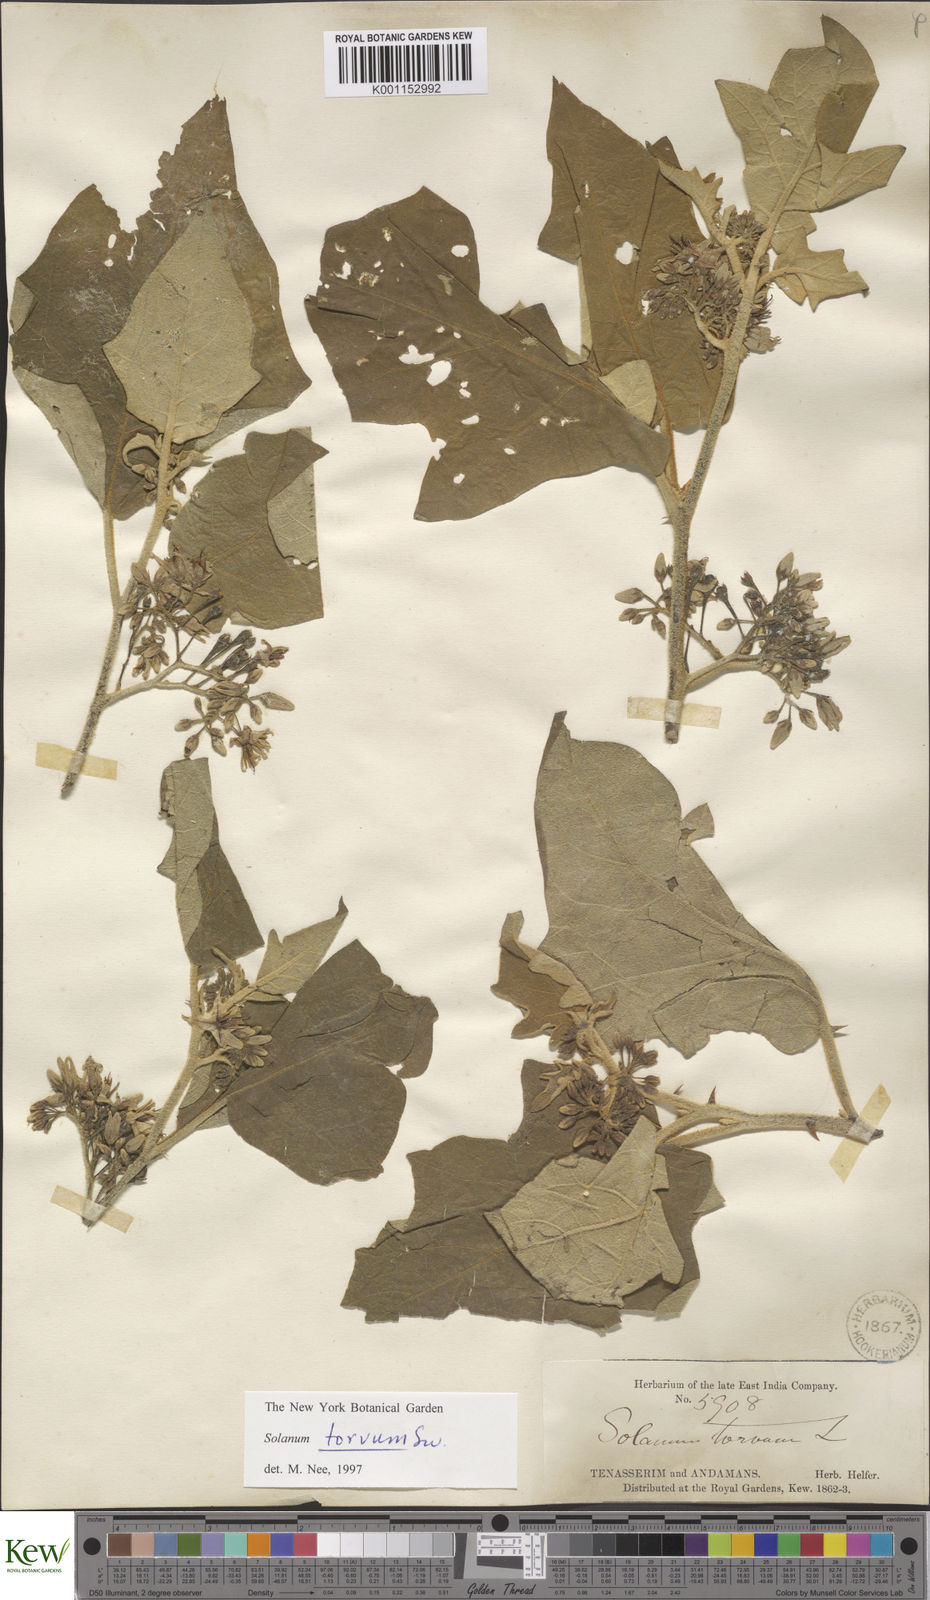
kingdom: Plantae
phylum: Tracheophyta
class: Magnoliopsida
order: Solanales
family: Solanaceae
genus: Solanum
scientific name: Solanum torvum
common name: Turkey berry
